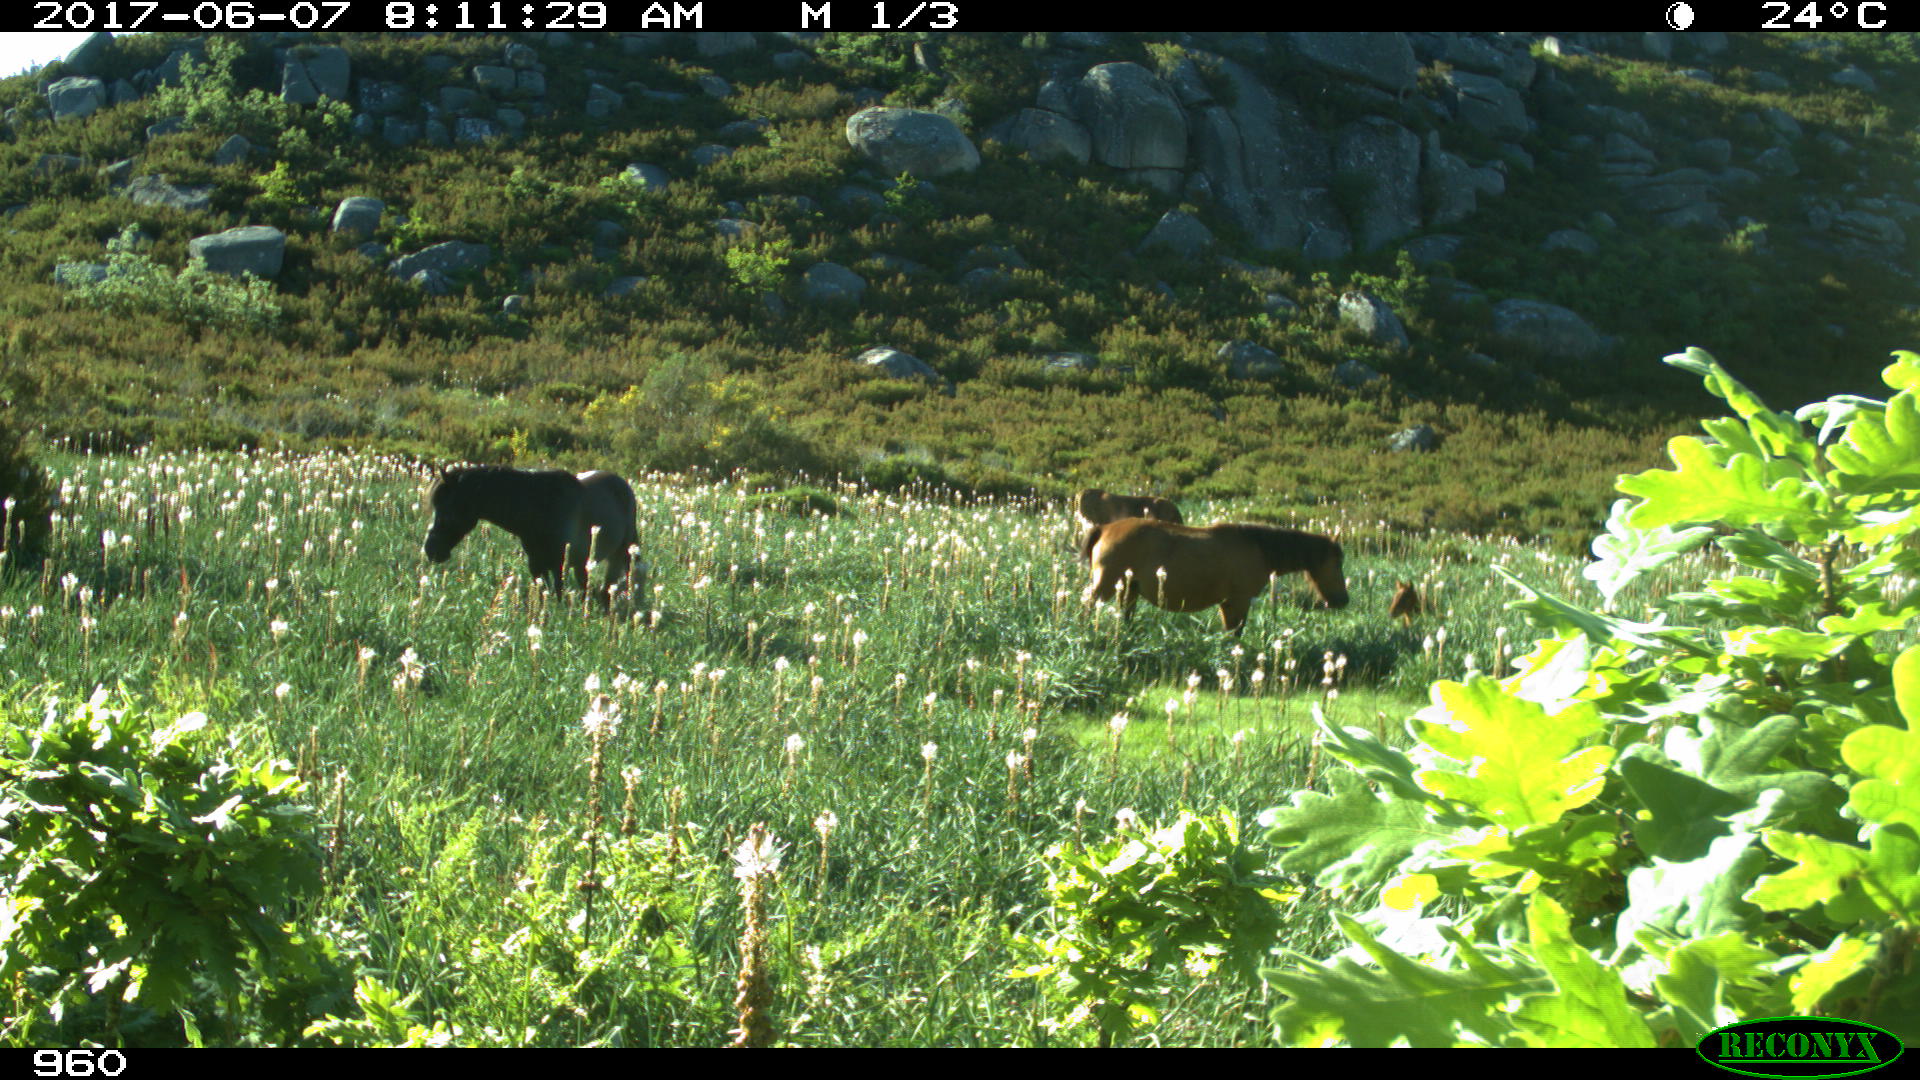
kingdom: Animalia
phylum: Chordata
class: Mammalia
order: Perissodactyla
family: Equidae
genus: Equus
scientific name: Equus caballus
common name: Horse
